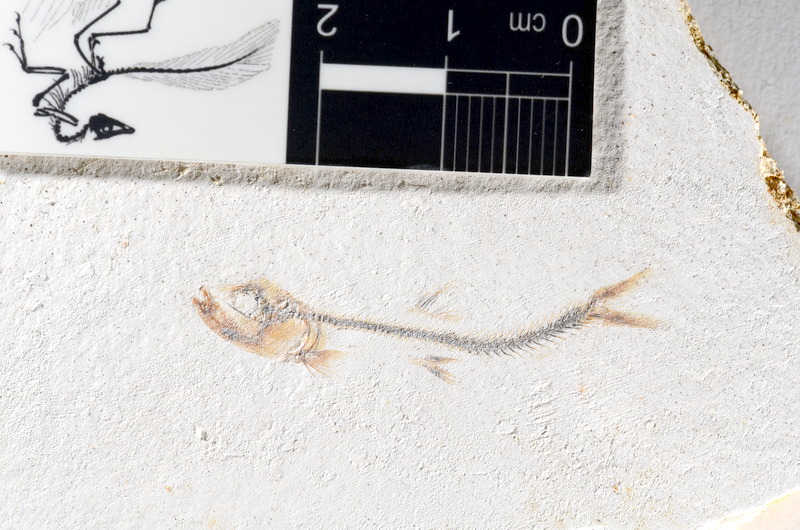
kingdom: Animalia
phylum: Chordata
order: Salmoniformes
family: Orthogonikleithridae
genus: Orthogonikleithrus
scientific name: Orthogonikleithrus hoelli
